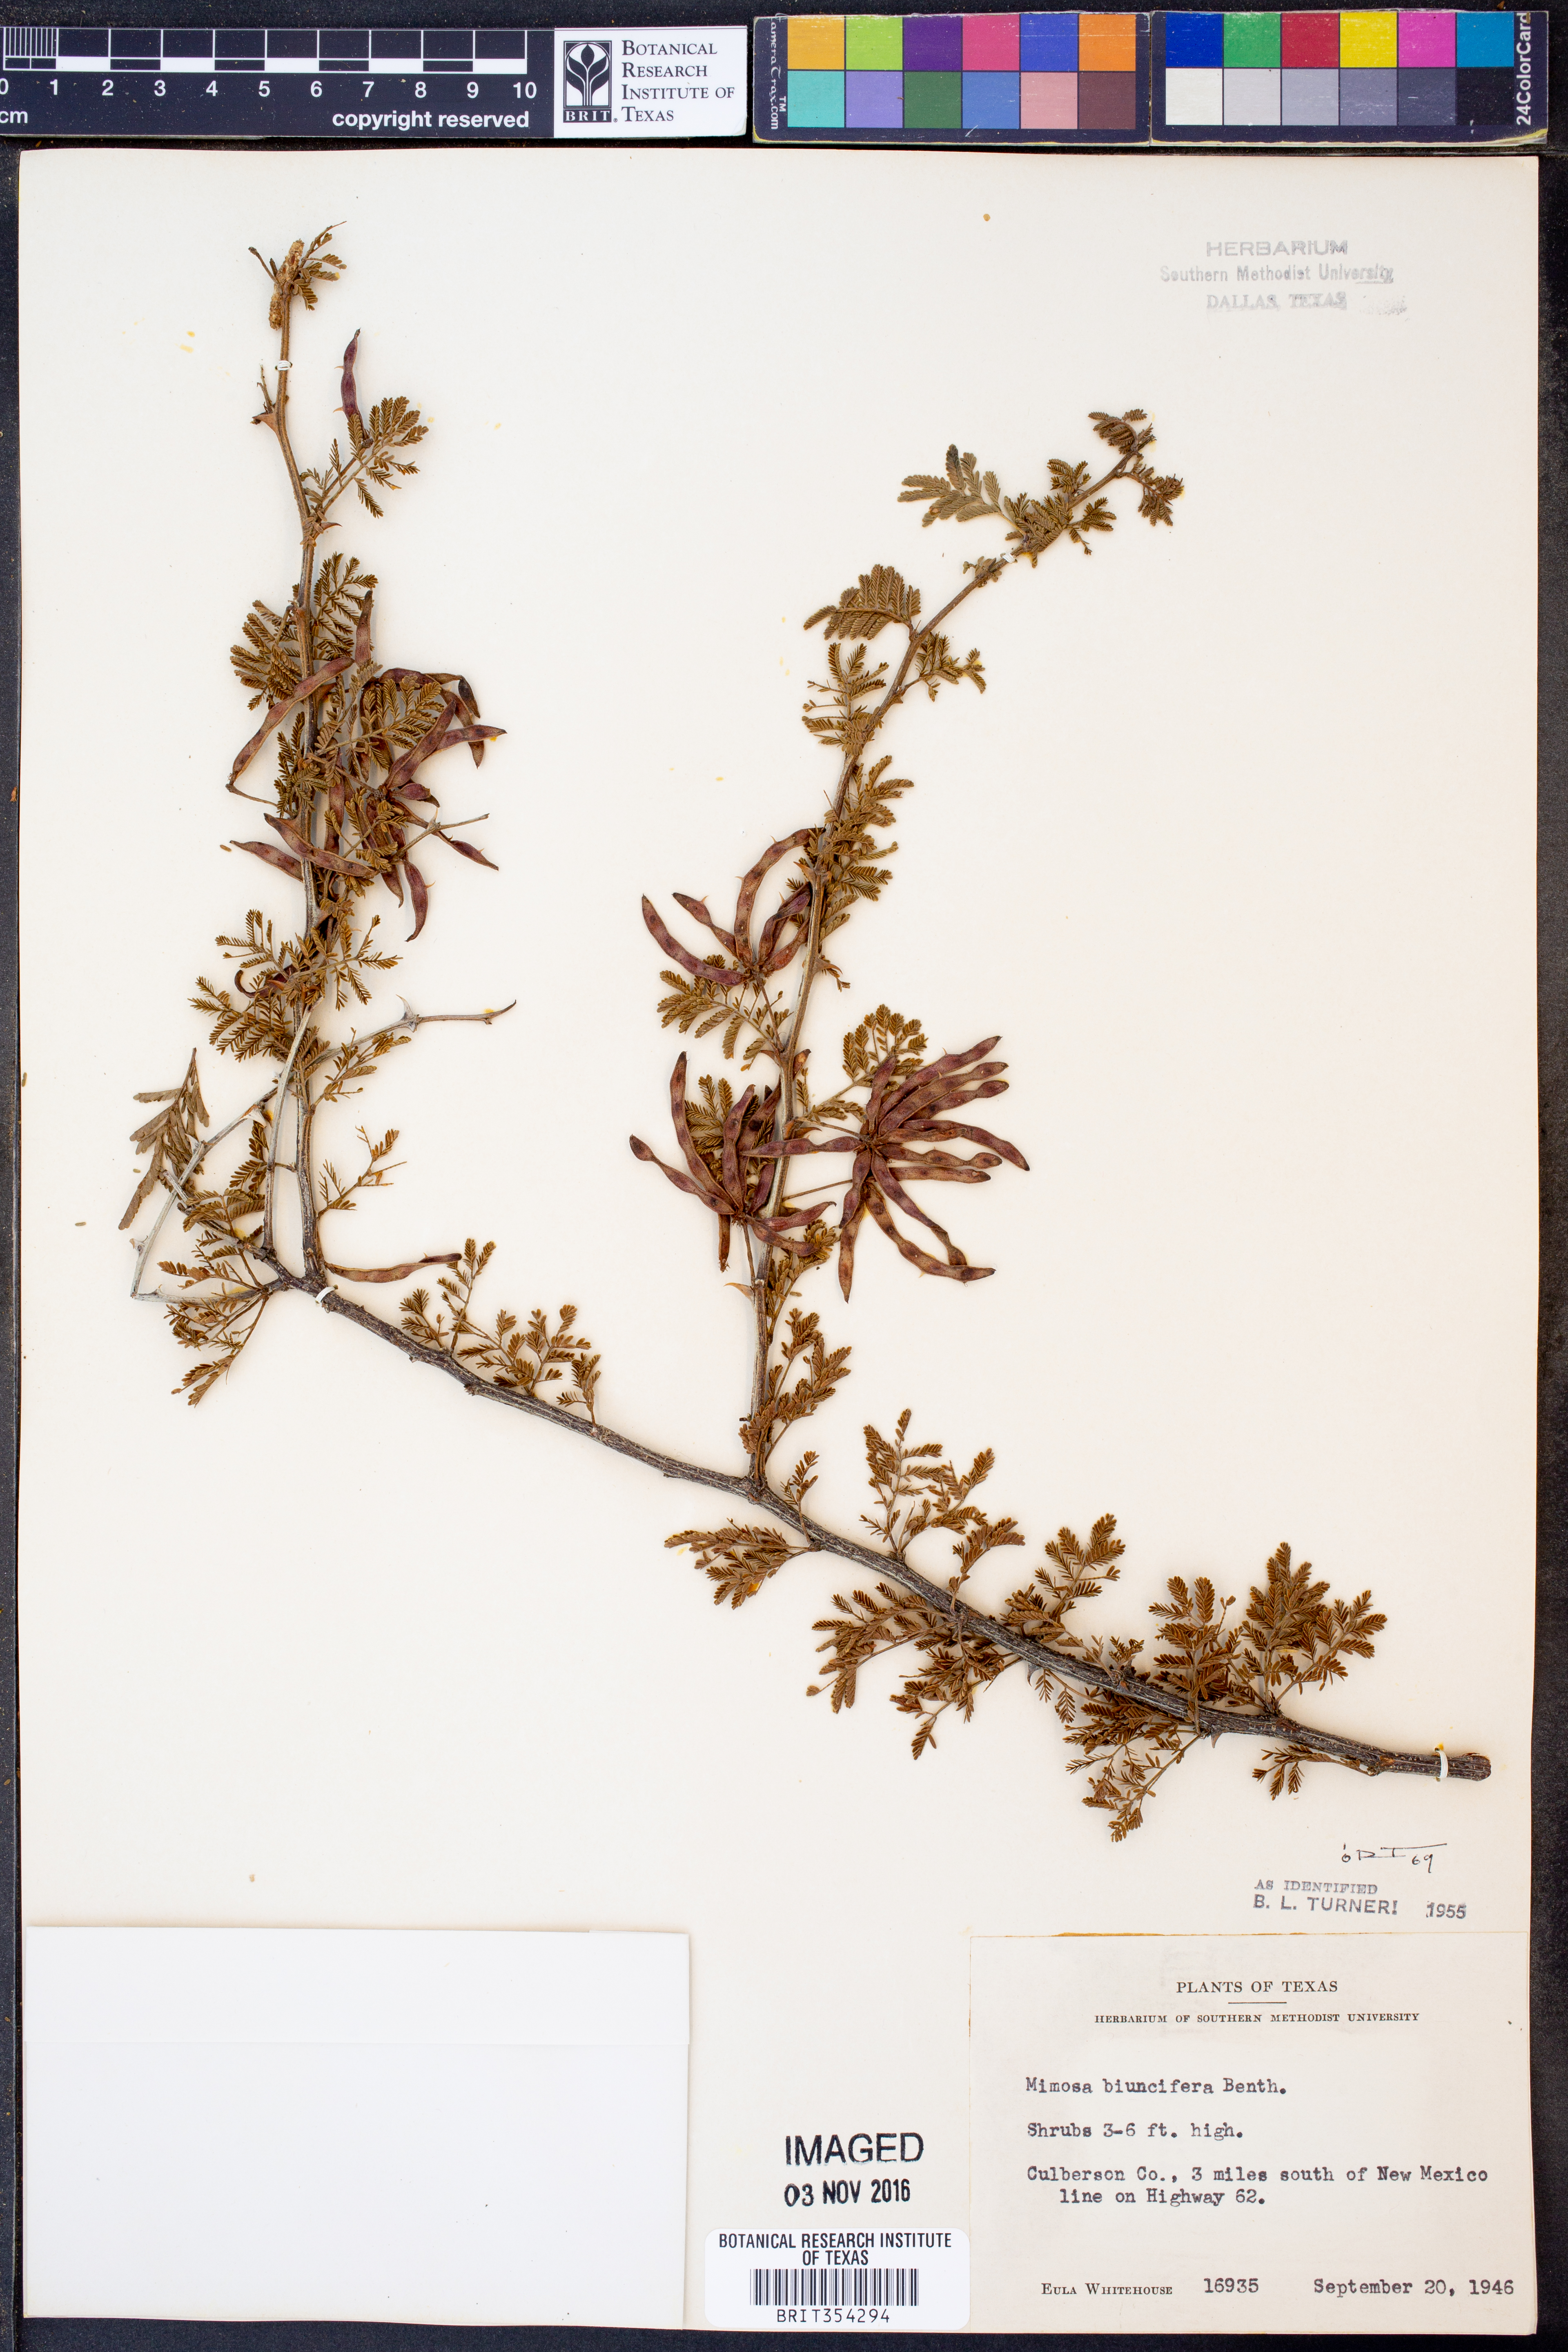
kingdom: Plantae
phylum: Tracheophyta
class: Magnoliopsida
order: Fabales
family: Fabaceae
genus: Mimosa
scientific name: Mimosa biuncifera
